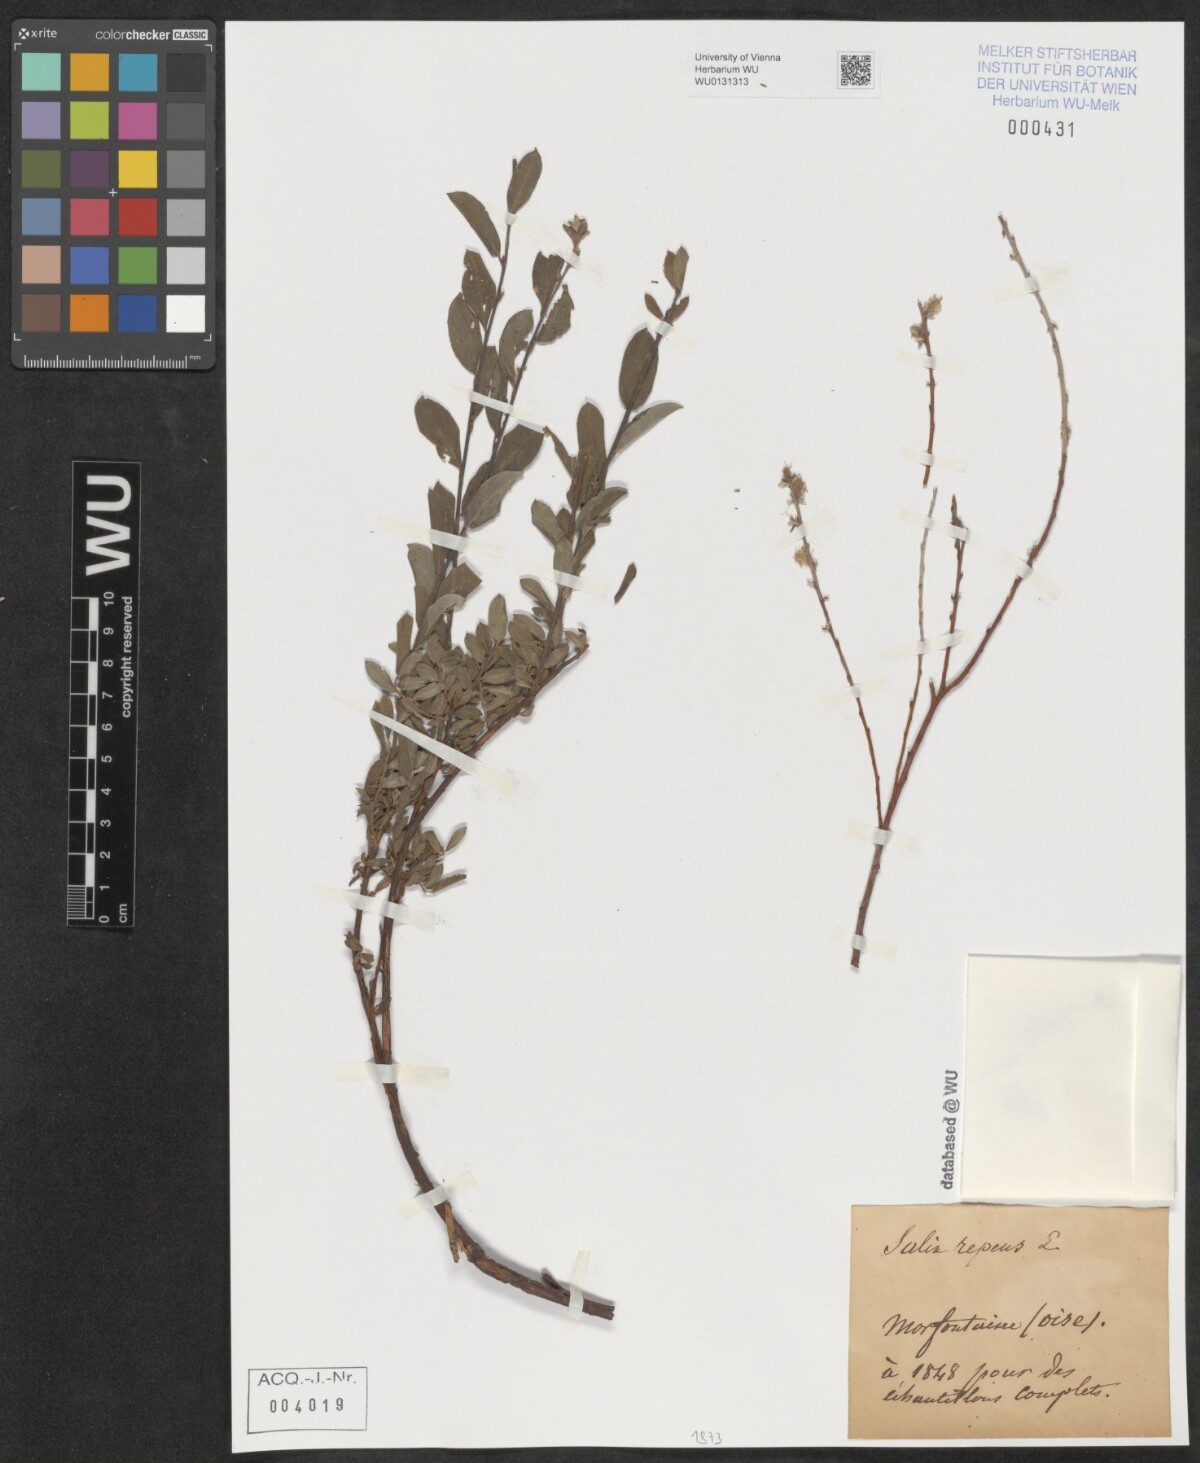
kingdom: Plantae
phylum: Tracheophyta
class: Magnoliopsida
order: Malpighiales
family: Salicaceae
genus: Salix
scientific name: Salix repens
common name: Creeping willow
